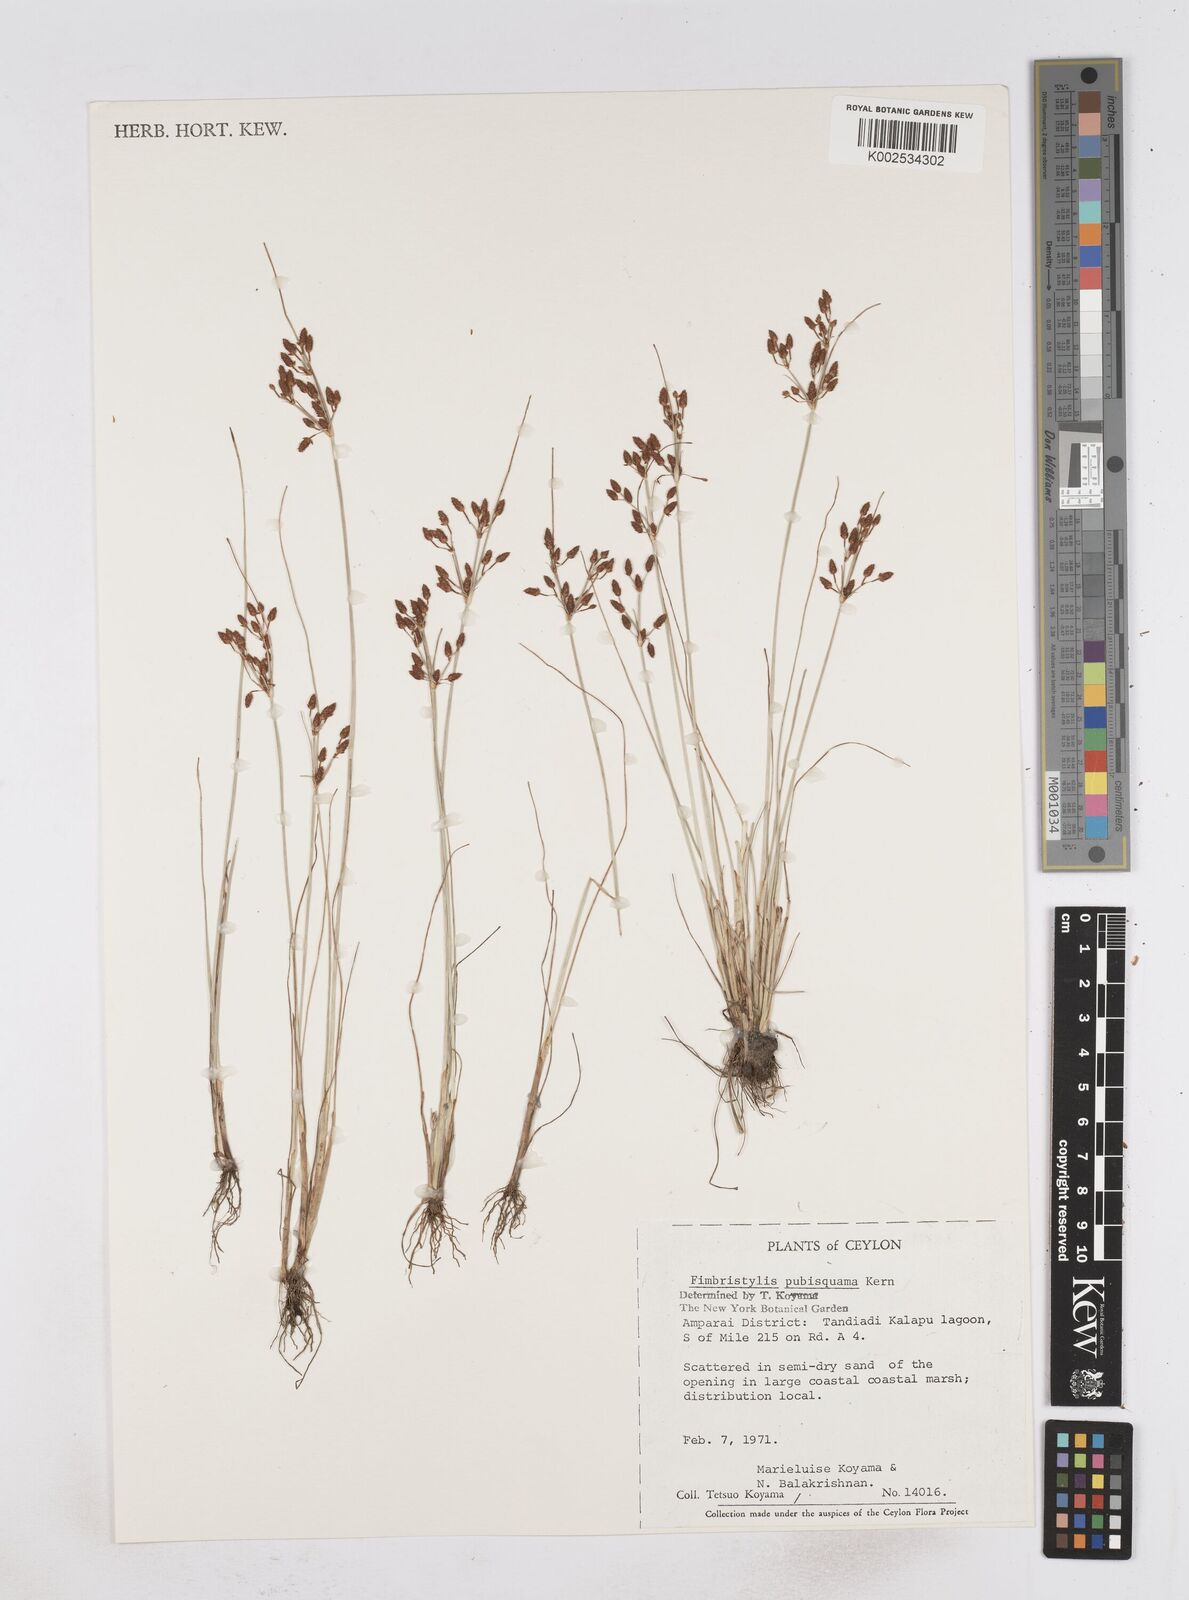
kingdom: Plantae
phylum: Tracheophyta
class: Liliopsida
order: Poales
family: Cyperaceae
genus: Fimbristylis
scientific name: Fimbristylis pubisquama
